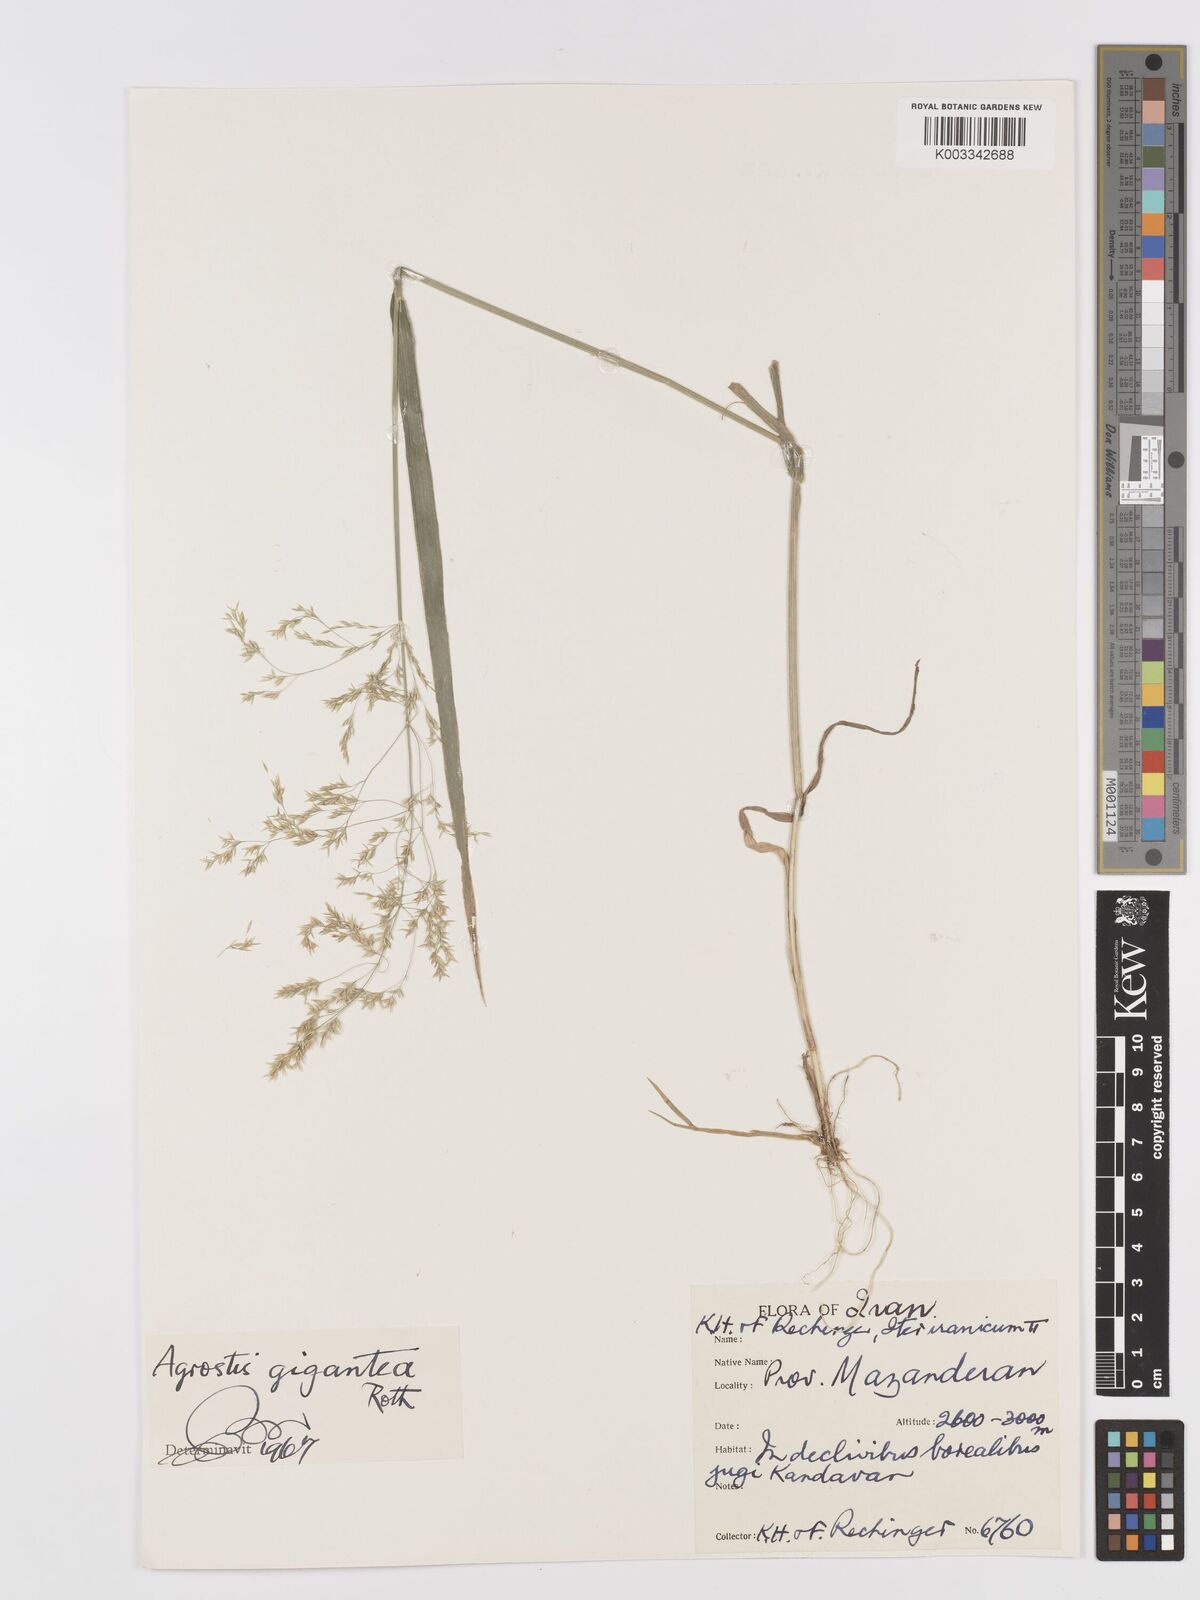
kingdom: Plantae
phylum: Tracheophyta
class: Liliopsida
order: Poales
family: Poaceae
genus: Agrostis
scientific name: Agrostis gigantea
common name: Black bent
